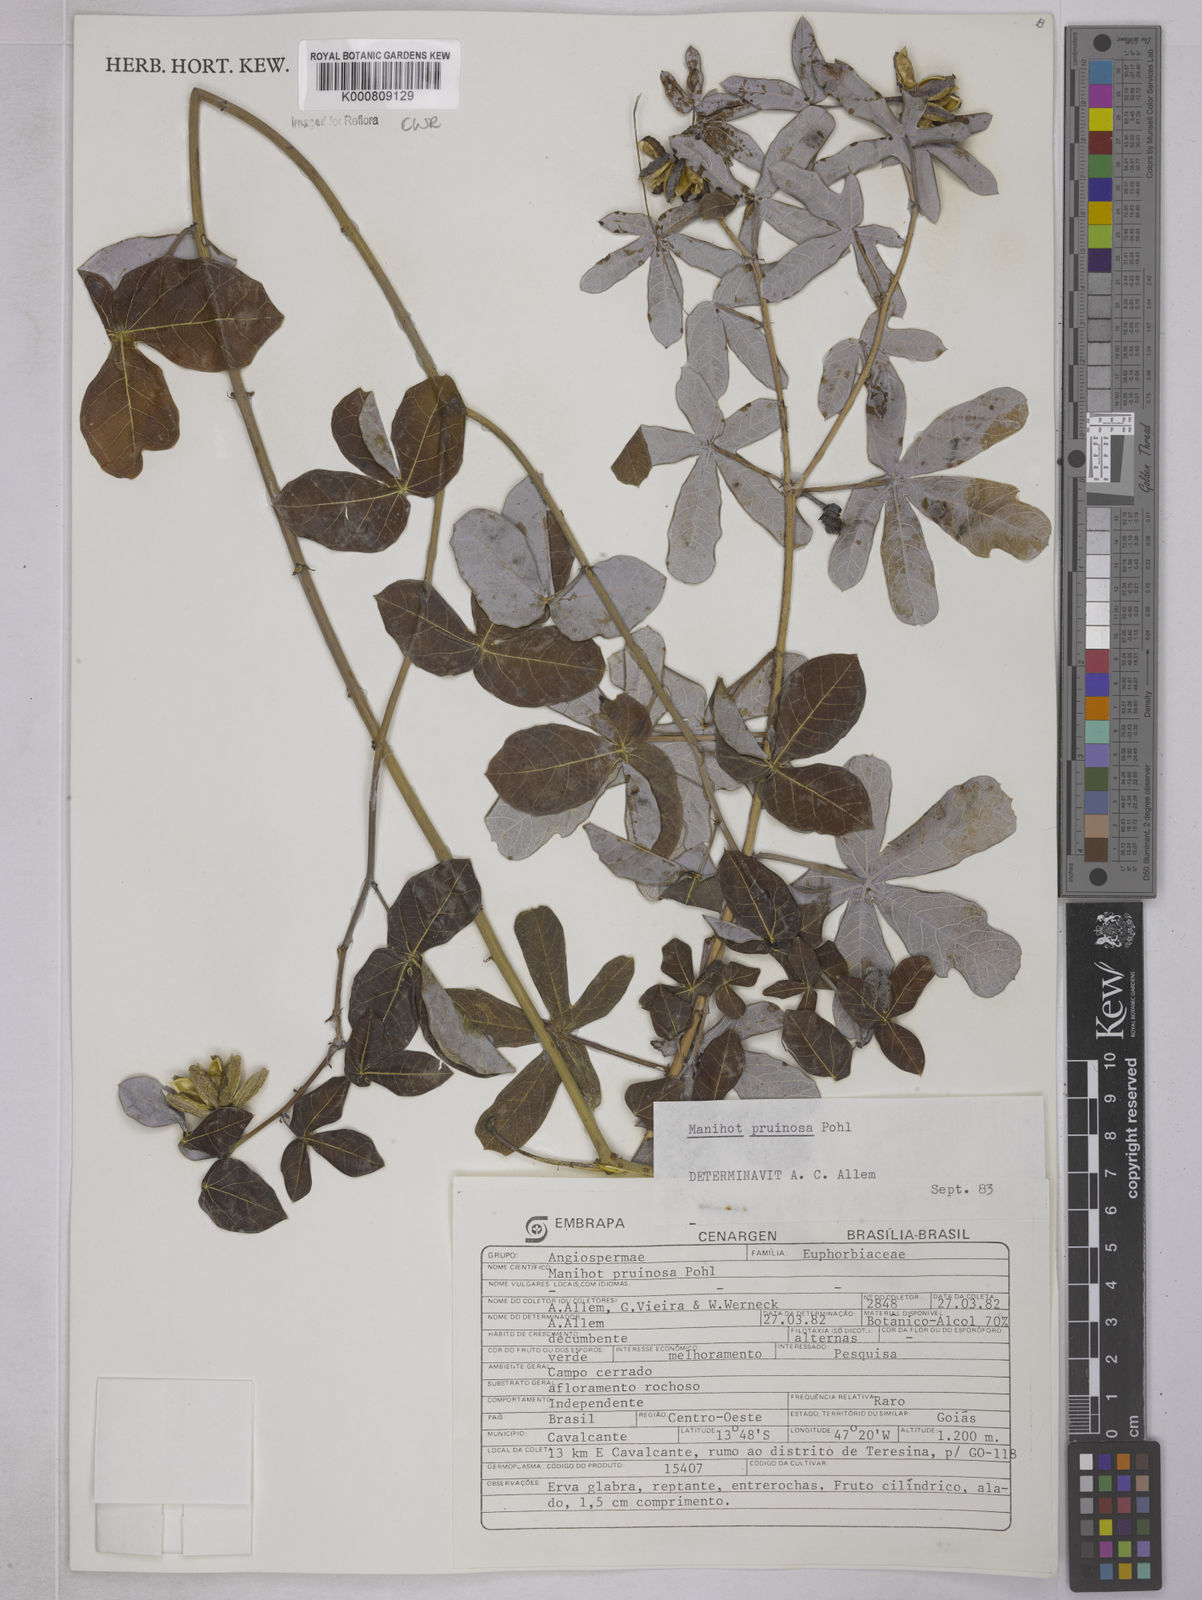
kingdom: Plantae
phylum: Tracheophyta
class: Magnoliopsida
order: Malpighiales
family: Euphorbiaceae
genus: Manihot
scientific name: Manihot pruinosa
